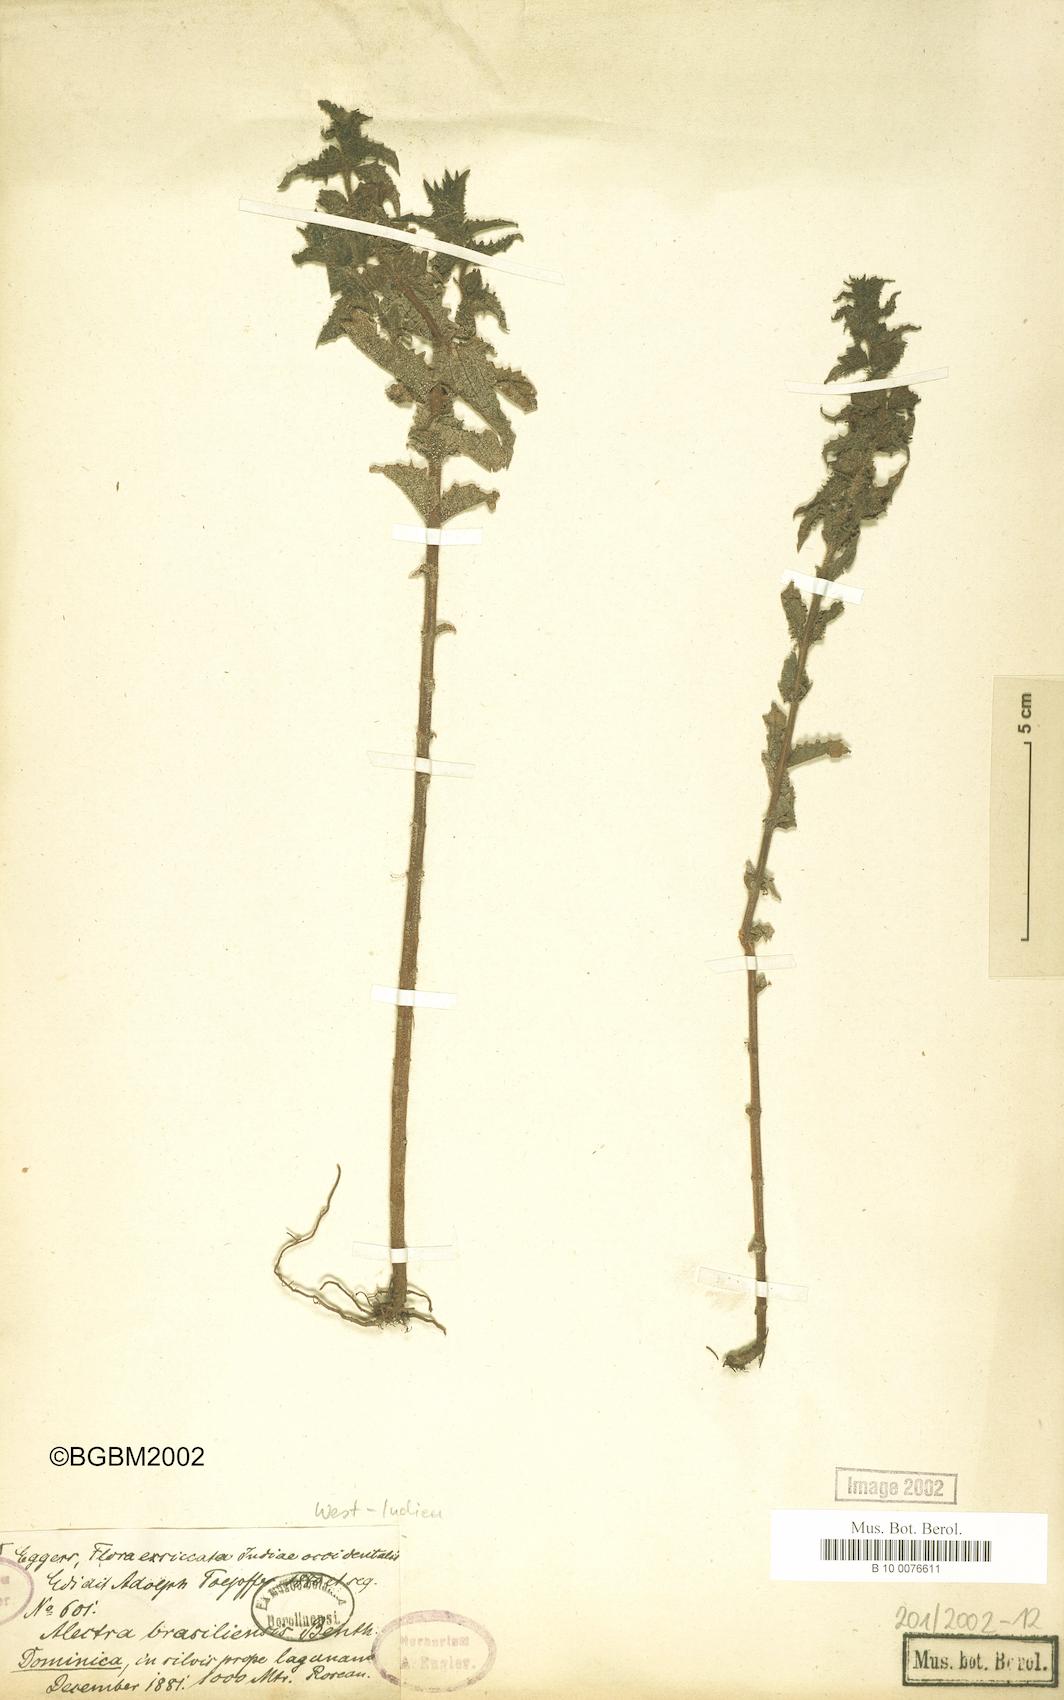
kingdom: Plantae
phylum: Tracheophyta
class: Magnoliopsida
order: Lamiales
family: Orobanchaceae
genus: Melasma
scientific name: Melasma melampyroides
